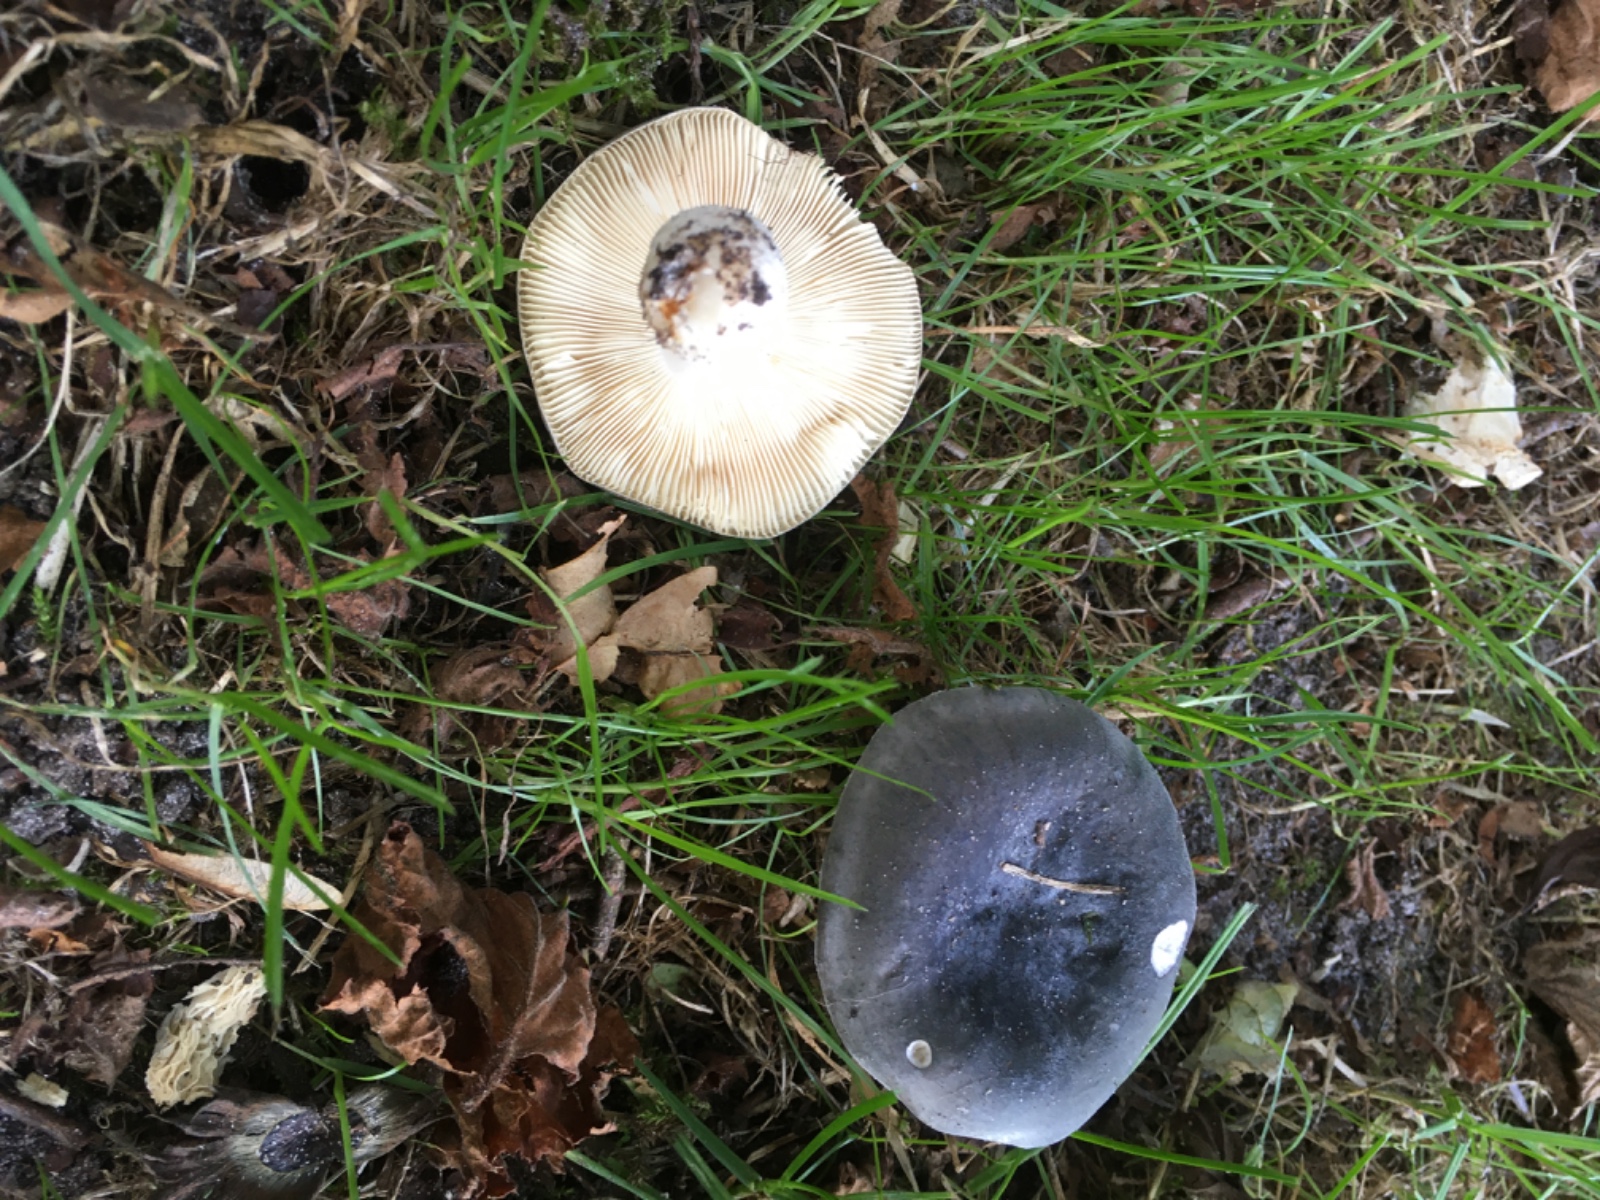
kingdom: Fungi
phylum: Basidiomycota
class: Agaricomycetes
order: Russulales
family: Russulaceae
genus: Russula
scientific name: Russula
